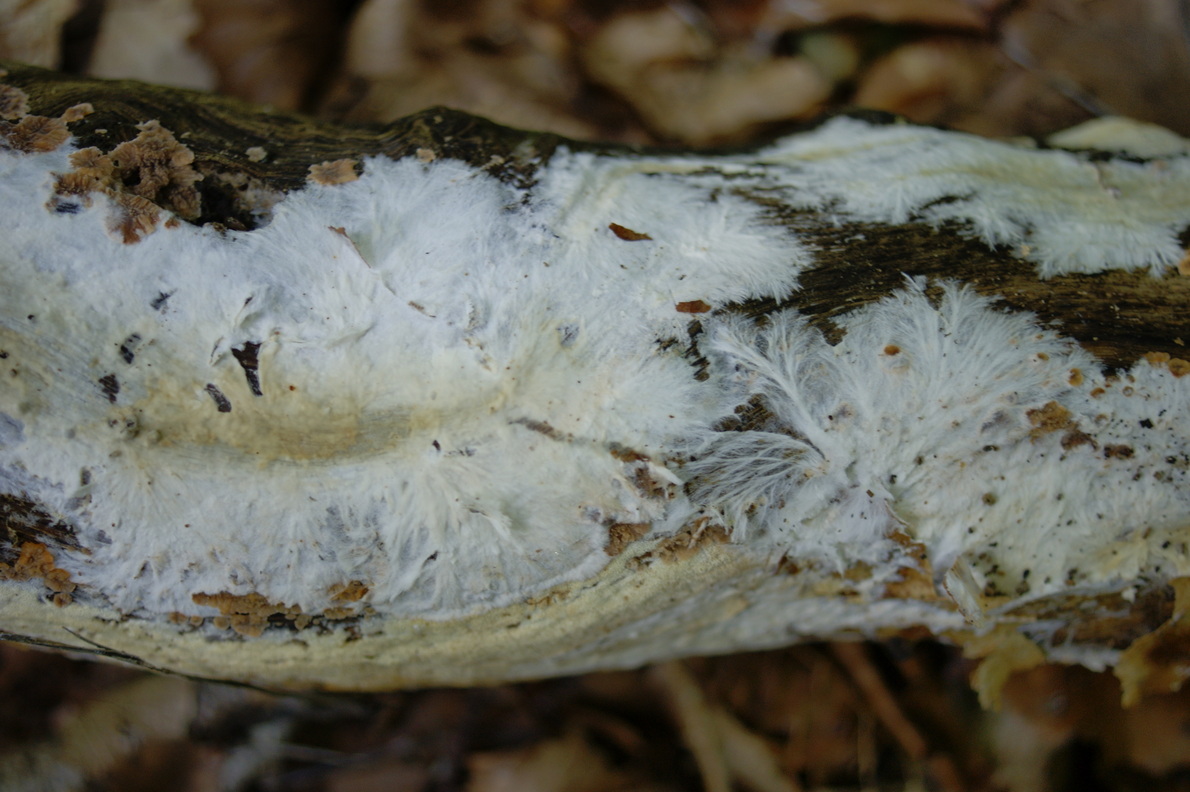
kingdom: Fungi
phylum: Basidiomycota
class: Agaricomycetes
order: Polyporales
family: Phanerochaetaceae
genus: Phanerochaete
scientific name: Phanerochaete velutina
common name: dunet randtråd
